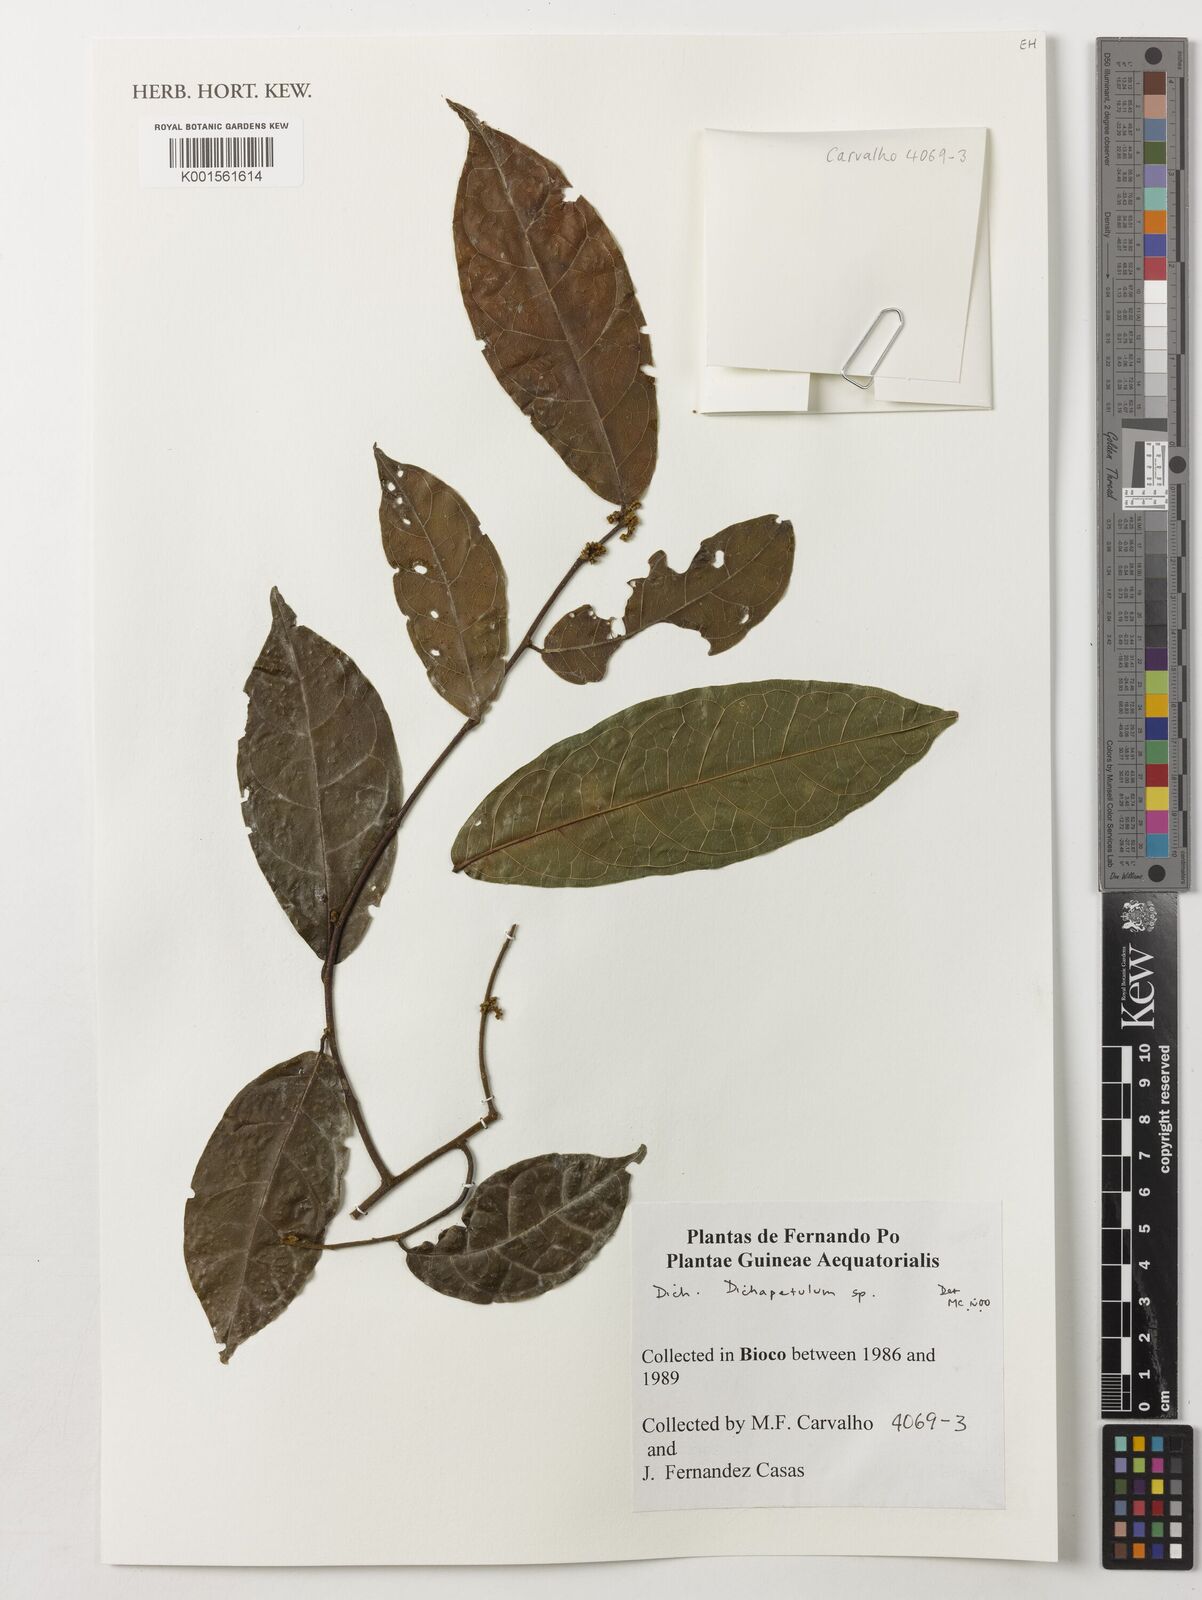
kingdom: Plantae
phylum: Tracheophyta
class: Magnoliopsida
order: Malpighiales
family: Dichapetalaceae
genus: Dichapetalum
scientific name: Dichapetalum
